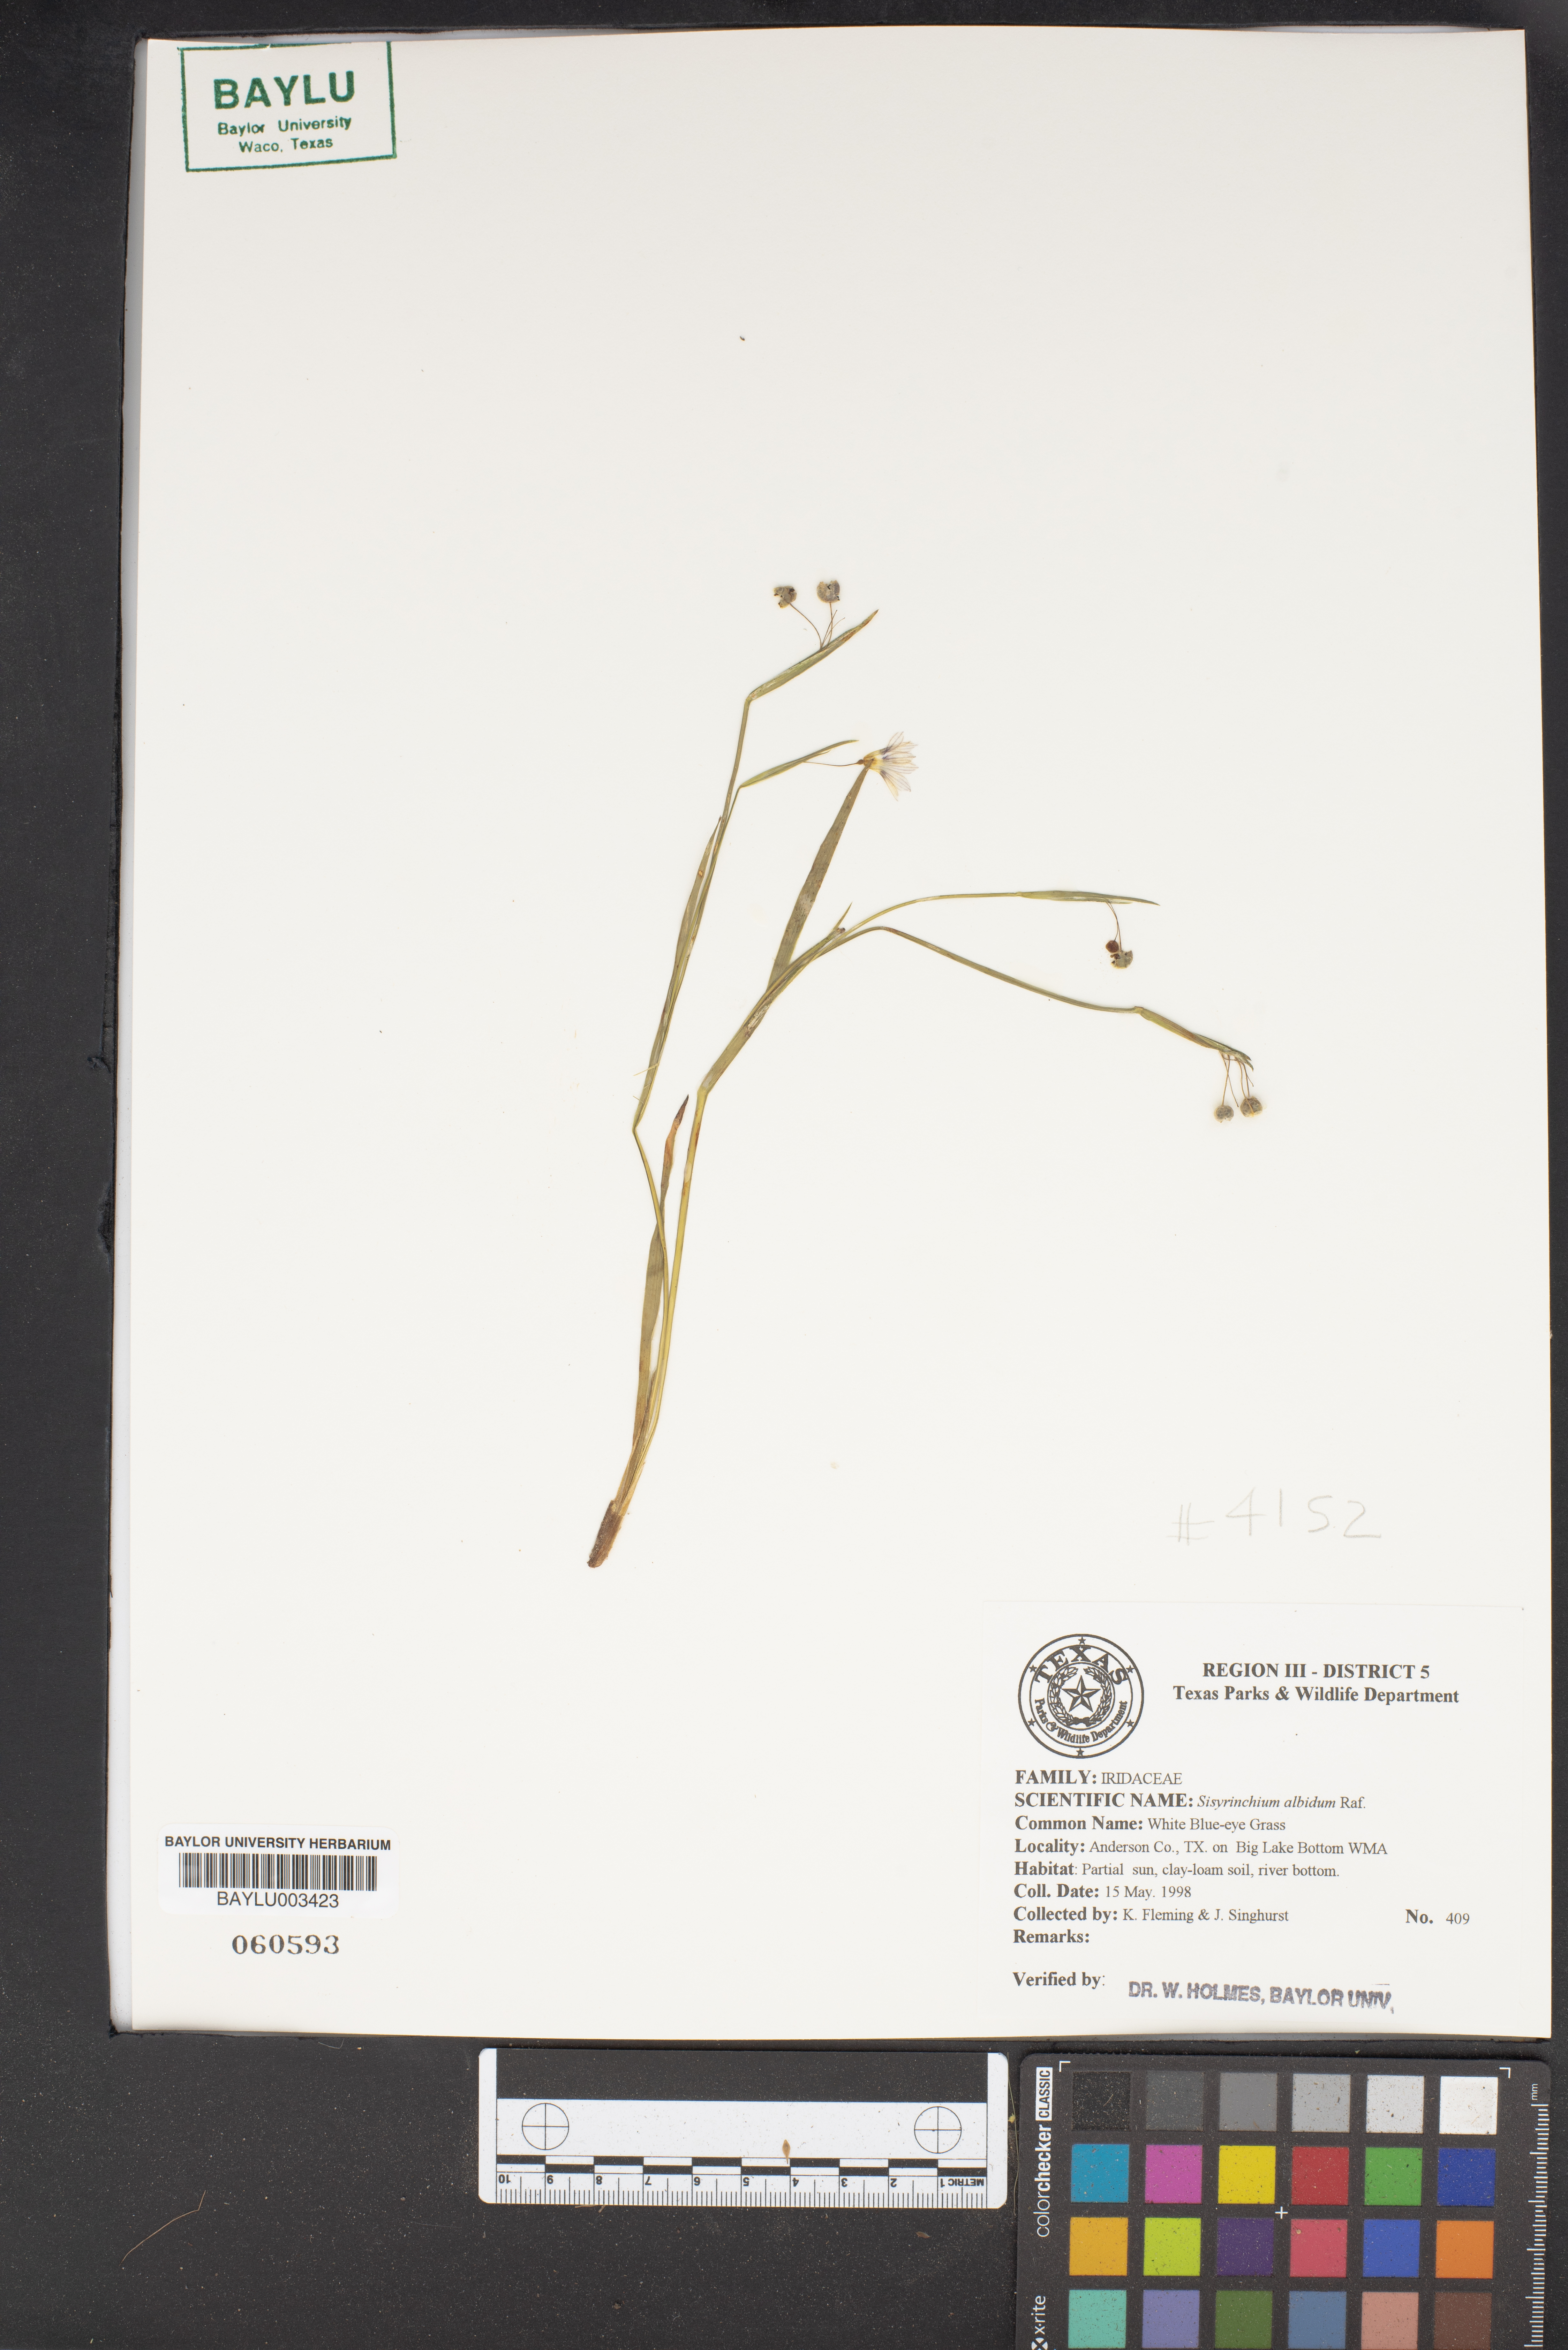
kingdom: Plantae
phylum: Tracheophyta
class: Liliopsida
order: Asparagales
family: Iridaceae
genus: Sisyrinchium
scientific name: Sisyrinchium albidum
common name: Pale blue-eyed-grass
